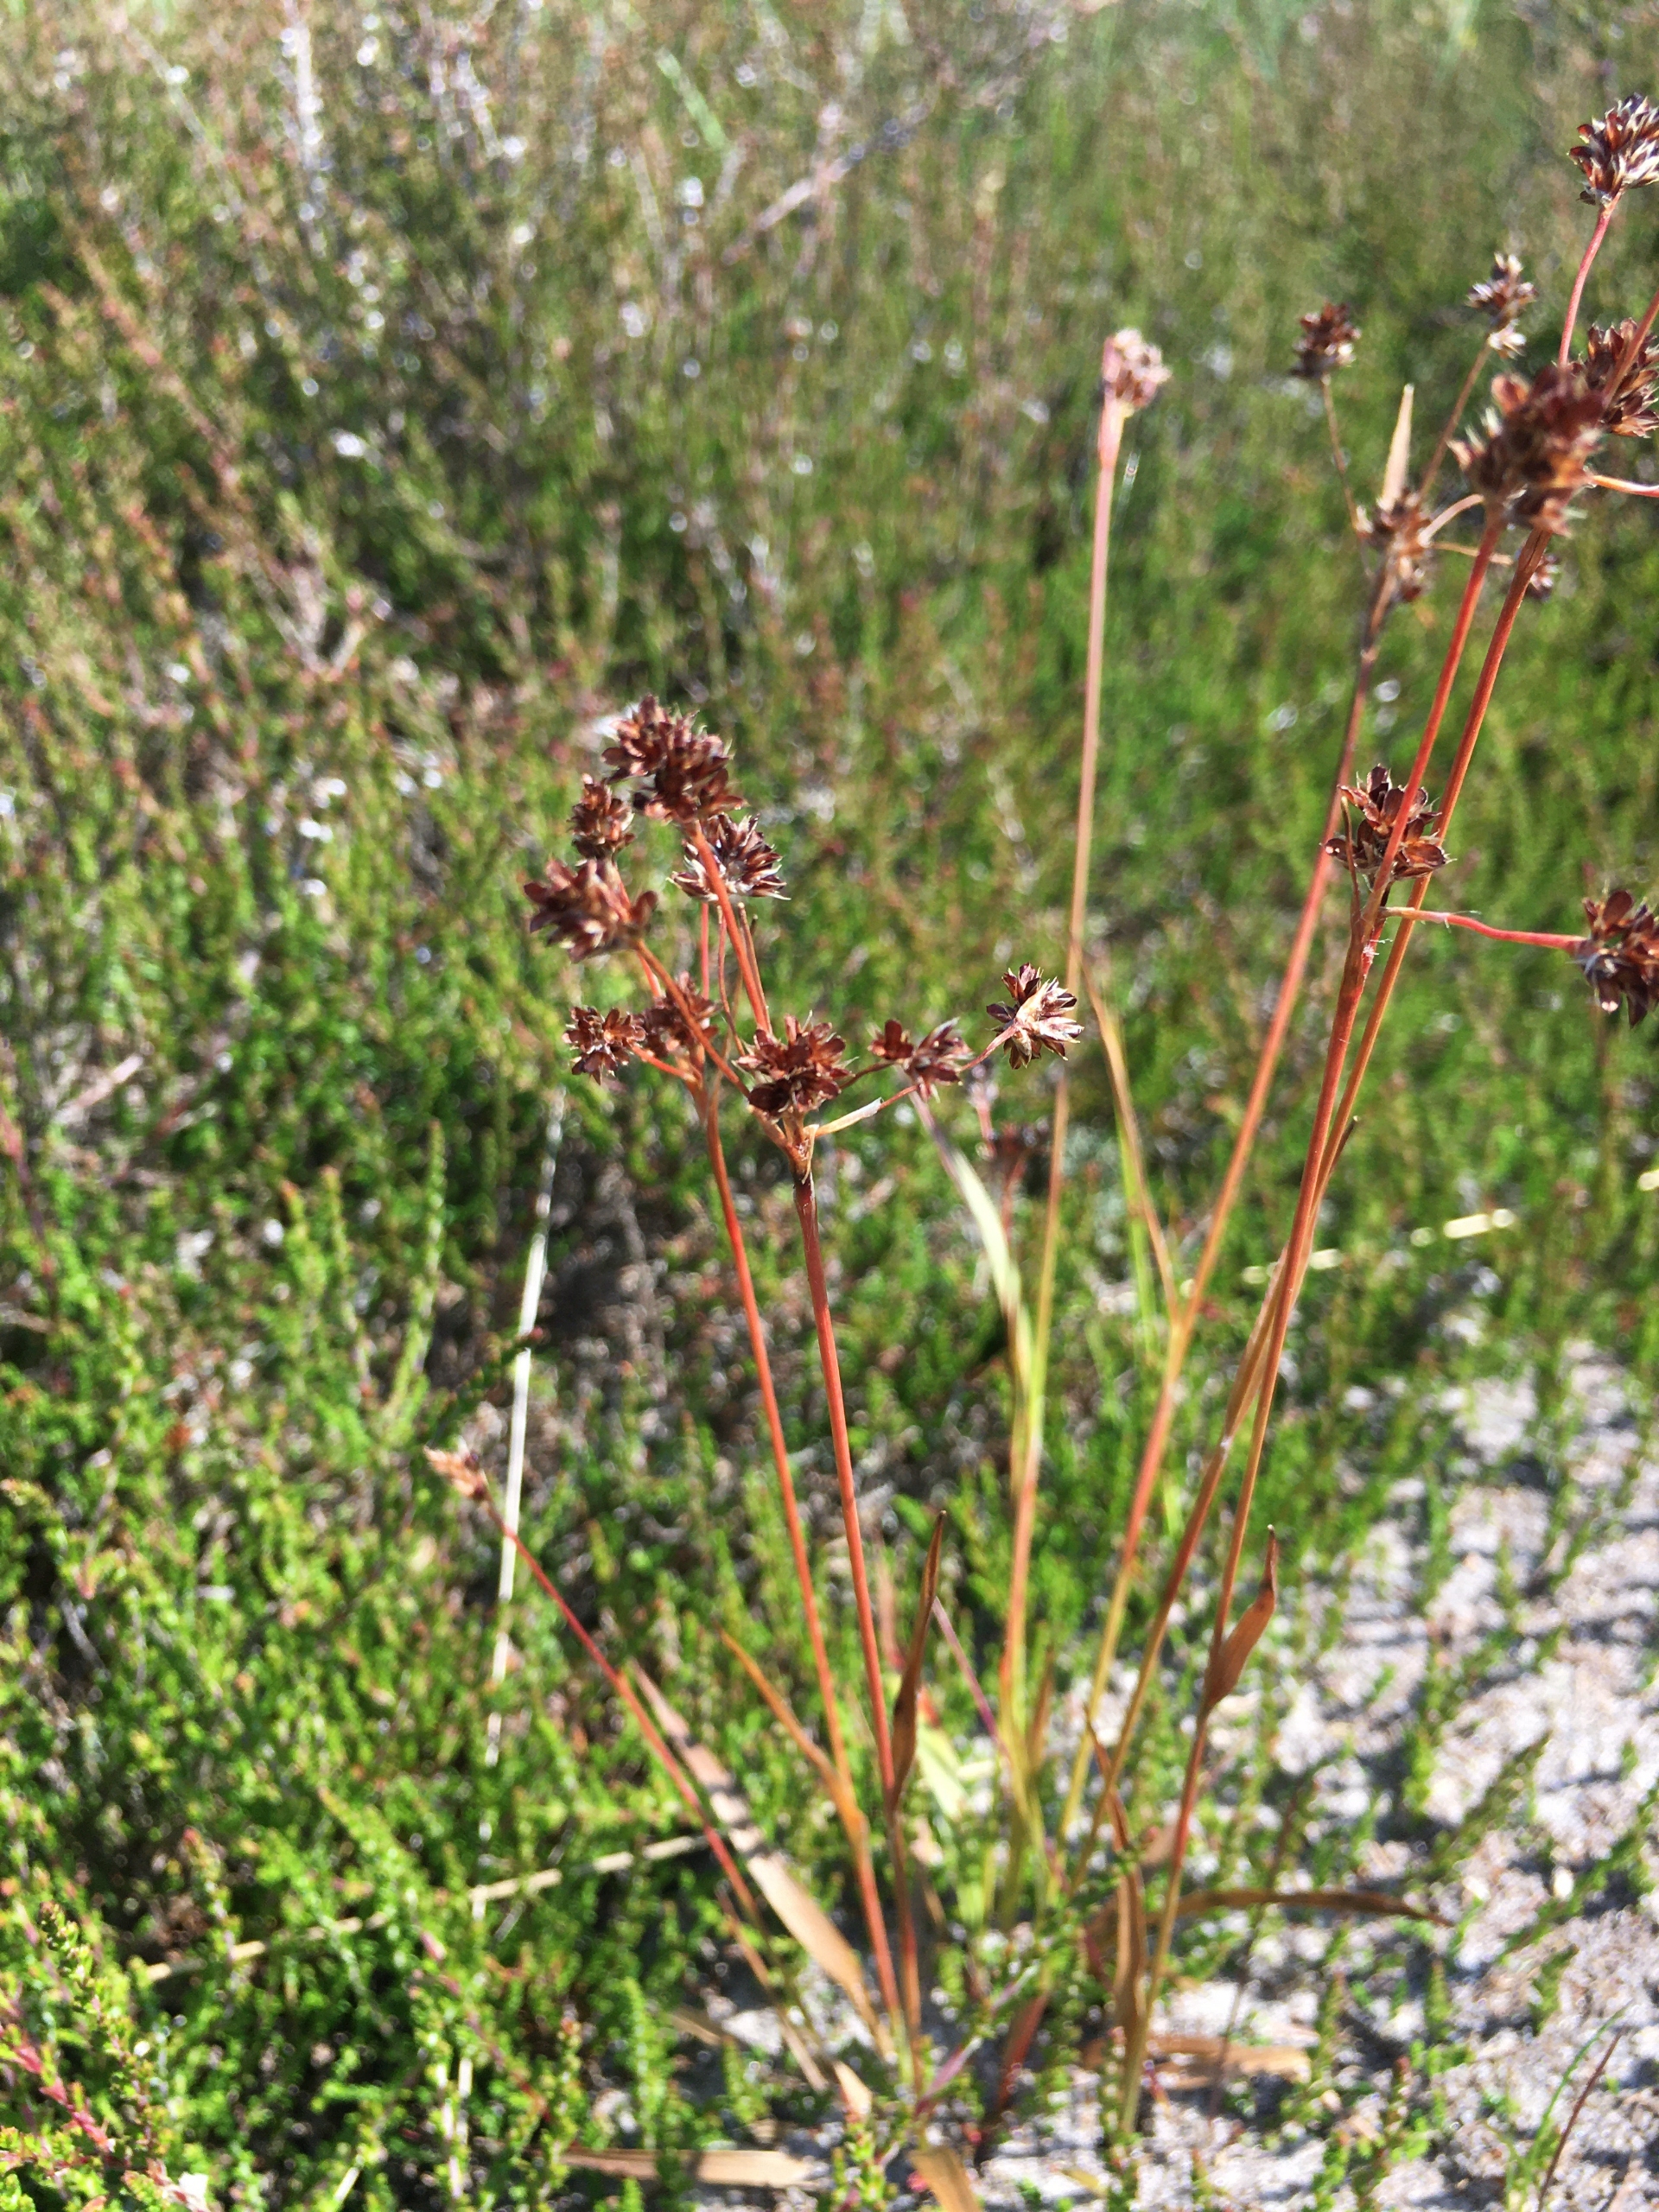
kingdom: Plantae
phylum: Tracheophyta
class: Liliopsida
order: Poales
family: Juncaceae
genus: Luzula
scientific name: Luzula multiflora
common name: Mangeblomstret frytle
